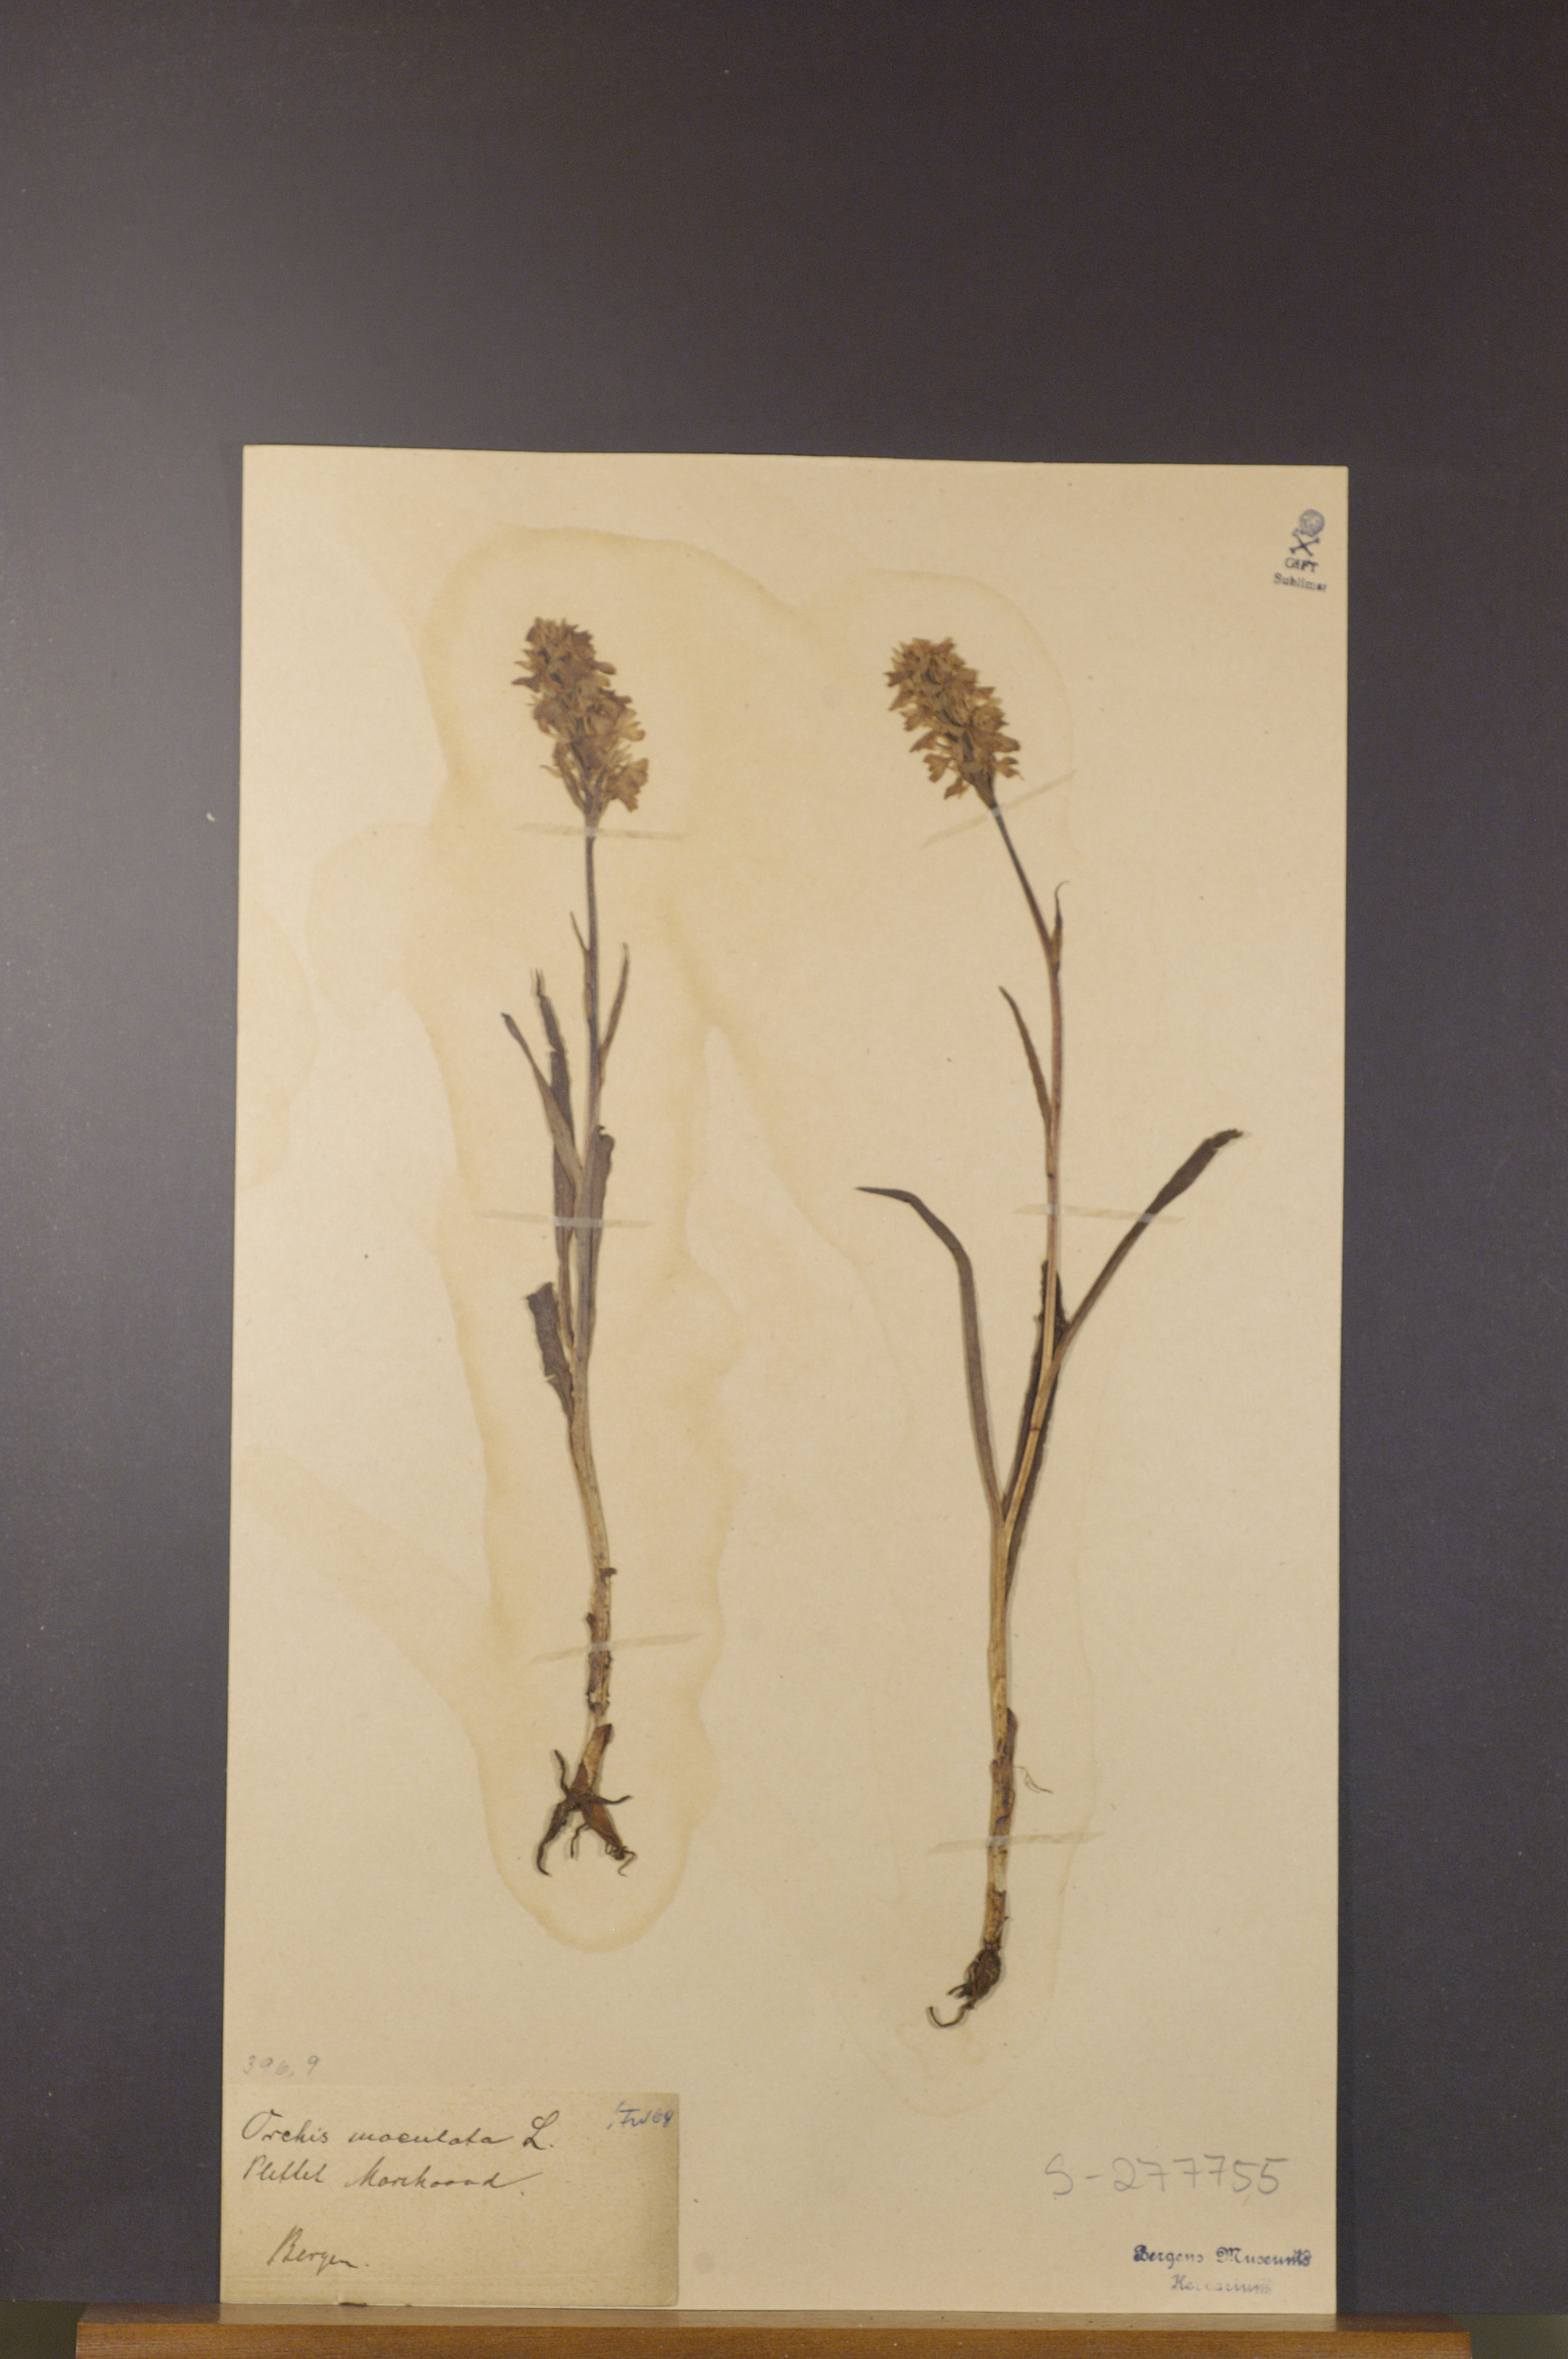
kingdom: Plantae
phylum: Tracheophyta
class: Liliopsida
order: Asparagales
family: Orchidaceae
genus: Dactylorhiza
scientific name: Dactylorhiza maculata
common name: Heath spotted-orchid
